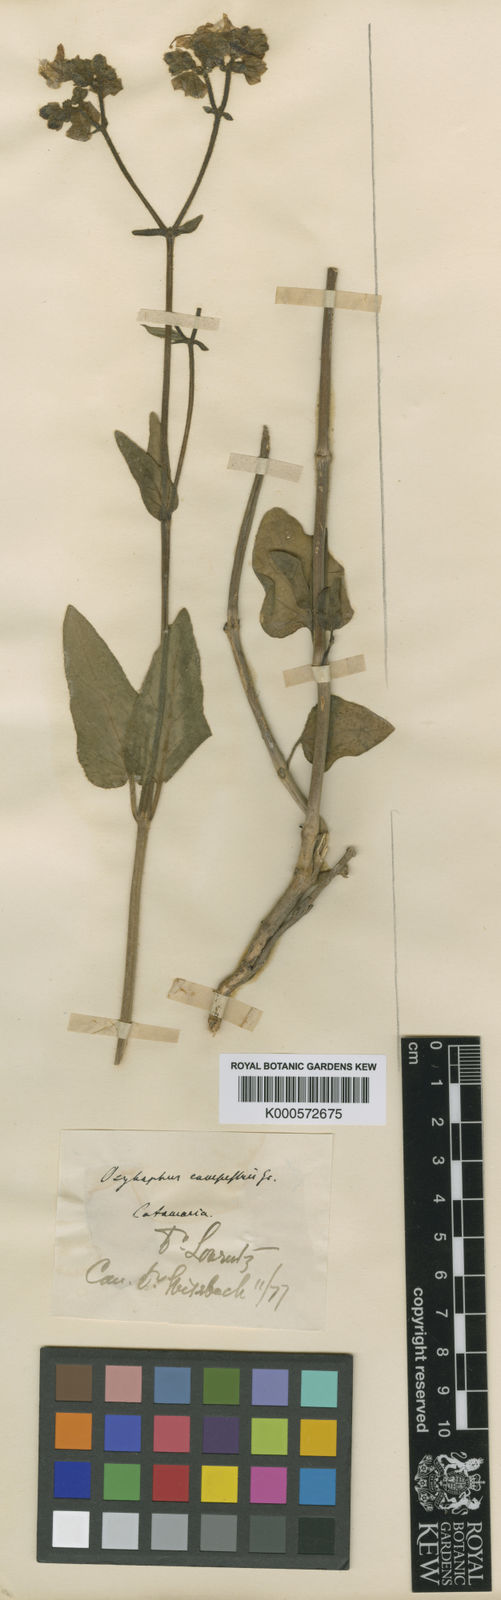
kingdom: Plantae
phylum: Tracheophyta
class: Magnoliopsida
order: Caryophyllales
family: Nyctaginaceae
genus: Mirabilis
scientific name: Mirabilis ovata
